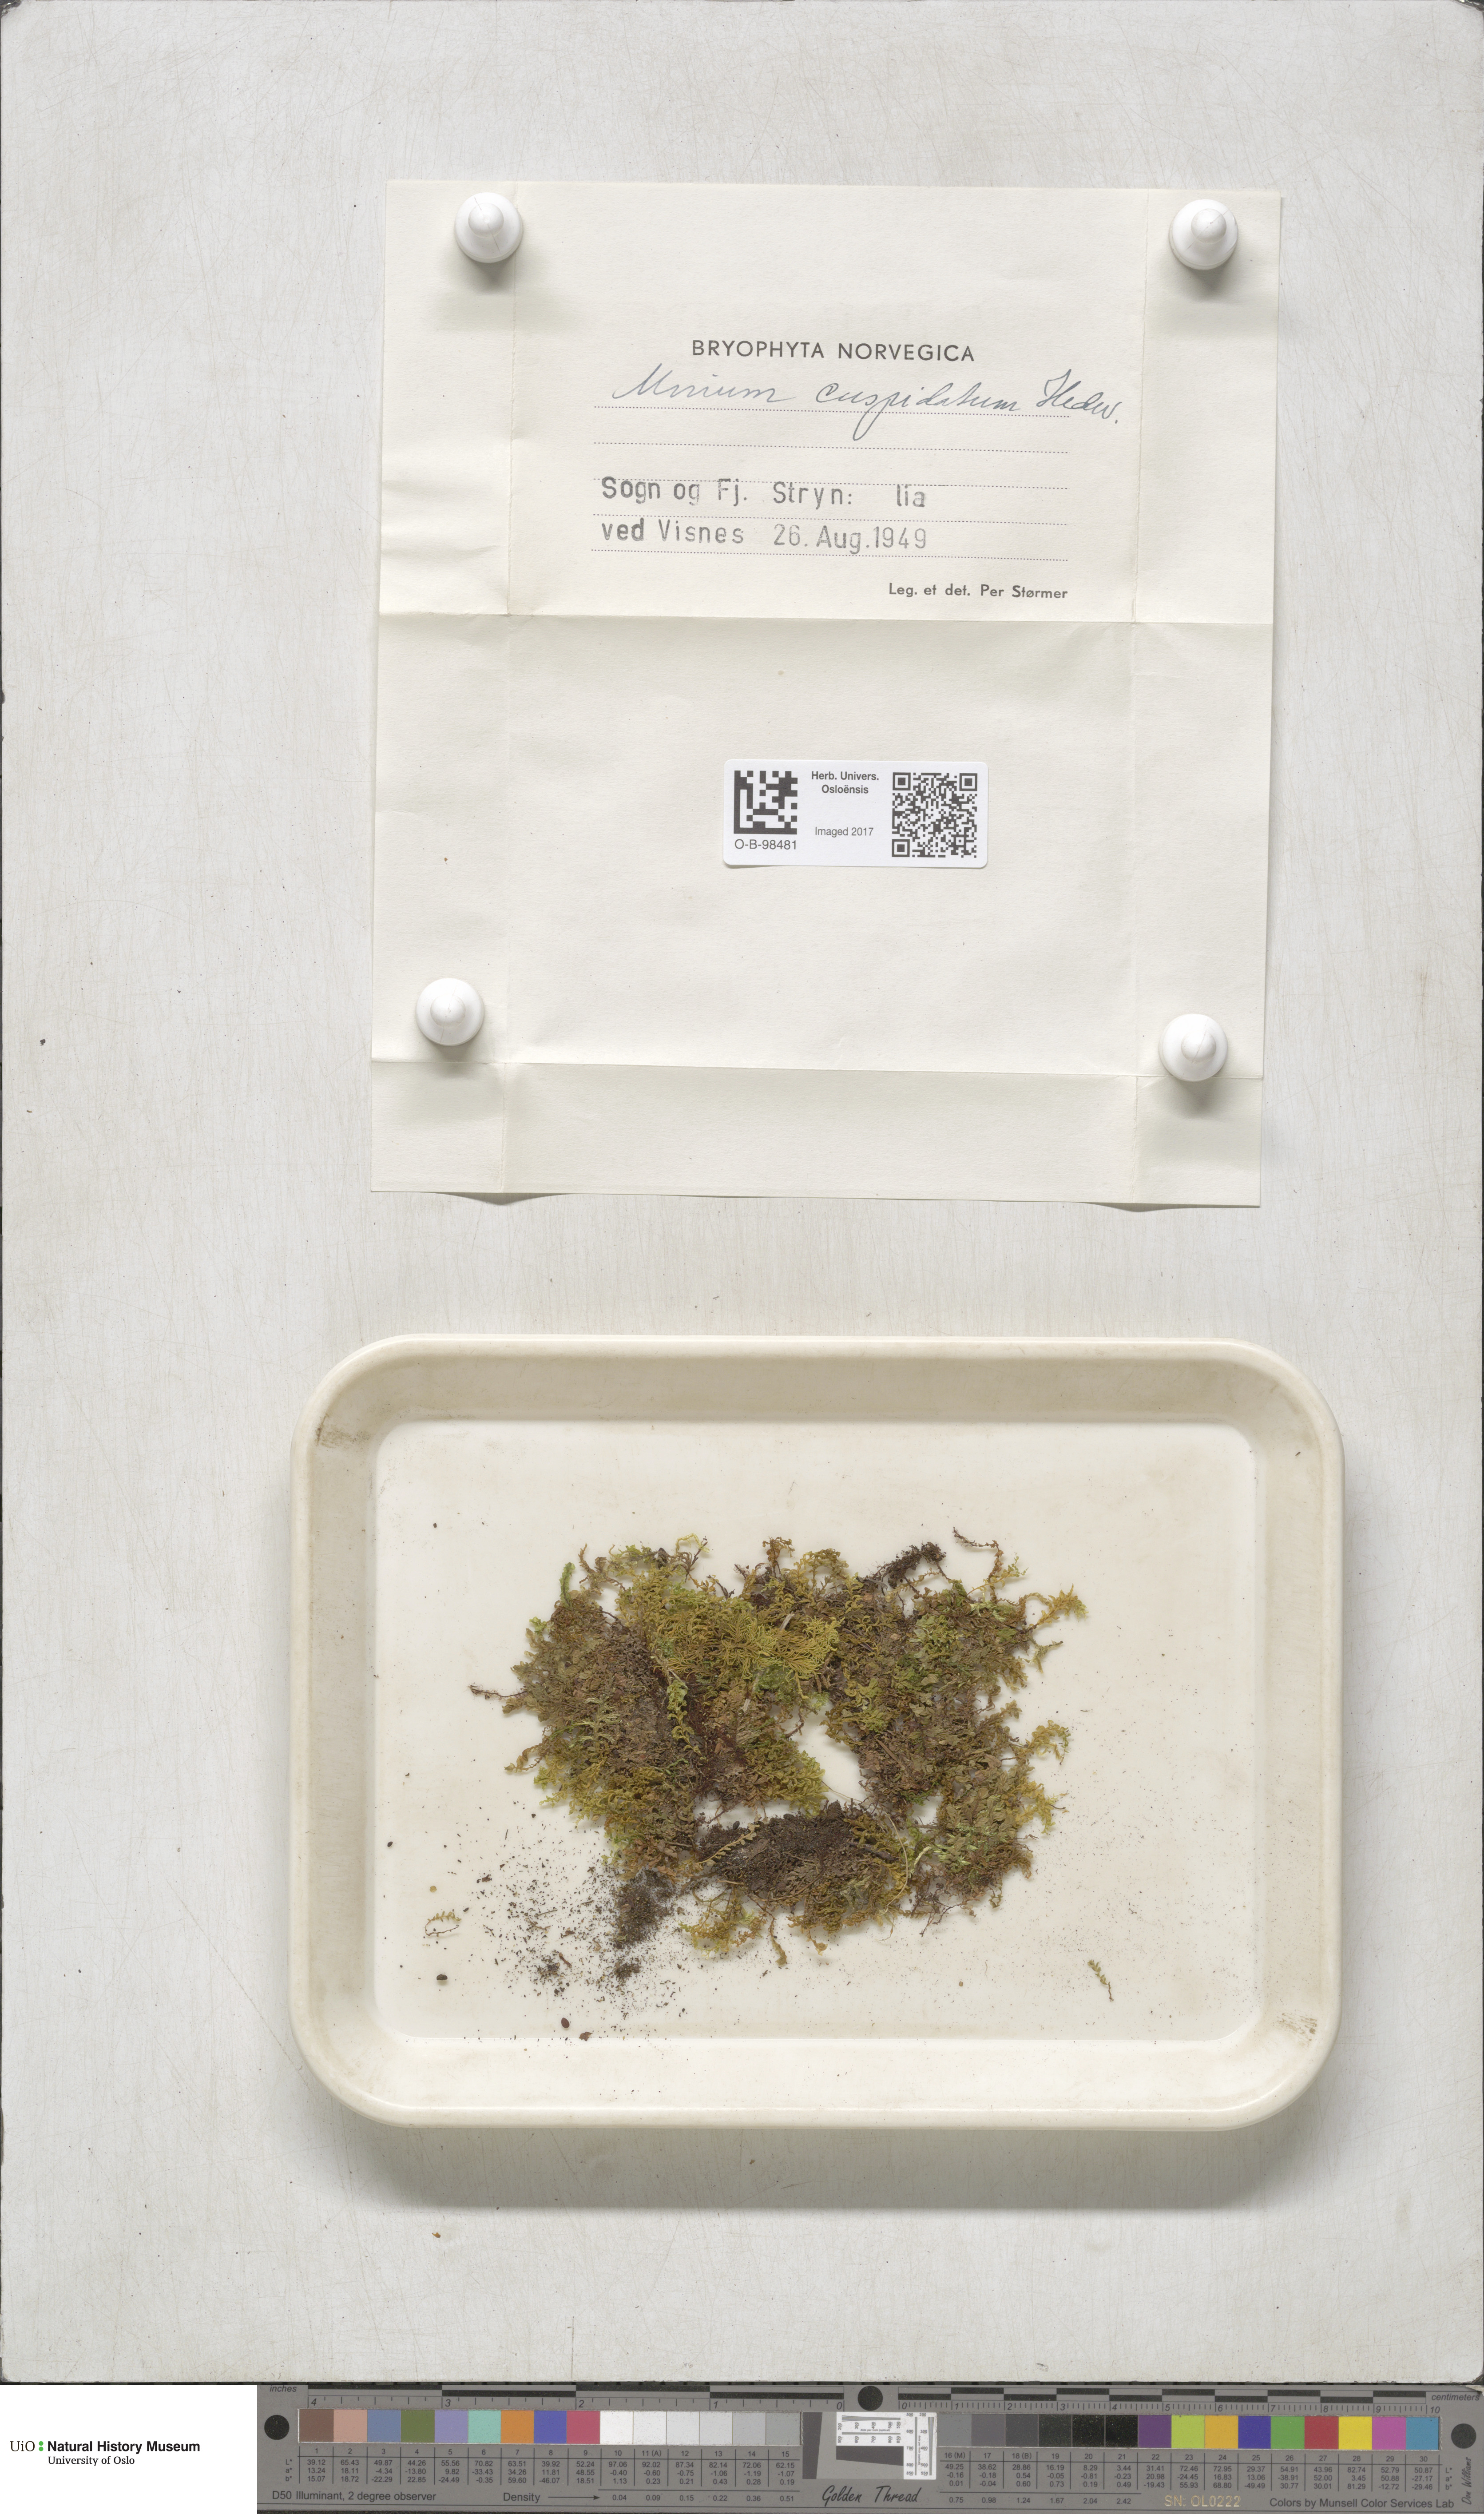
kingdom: Plantae
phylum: Bryophyta
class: Bryopsida
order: Bryales
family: Mniaceae
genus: Plagiomnium
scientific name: Plagiomnium cuspidatum
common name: Woodsy leafy moss
